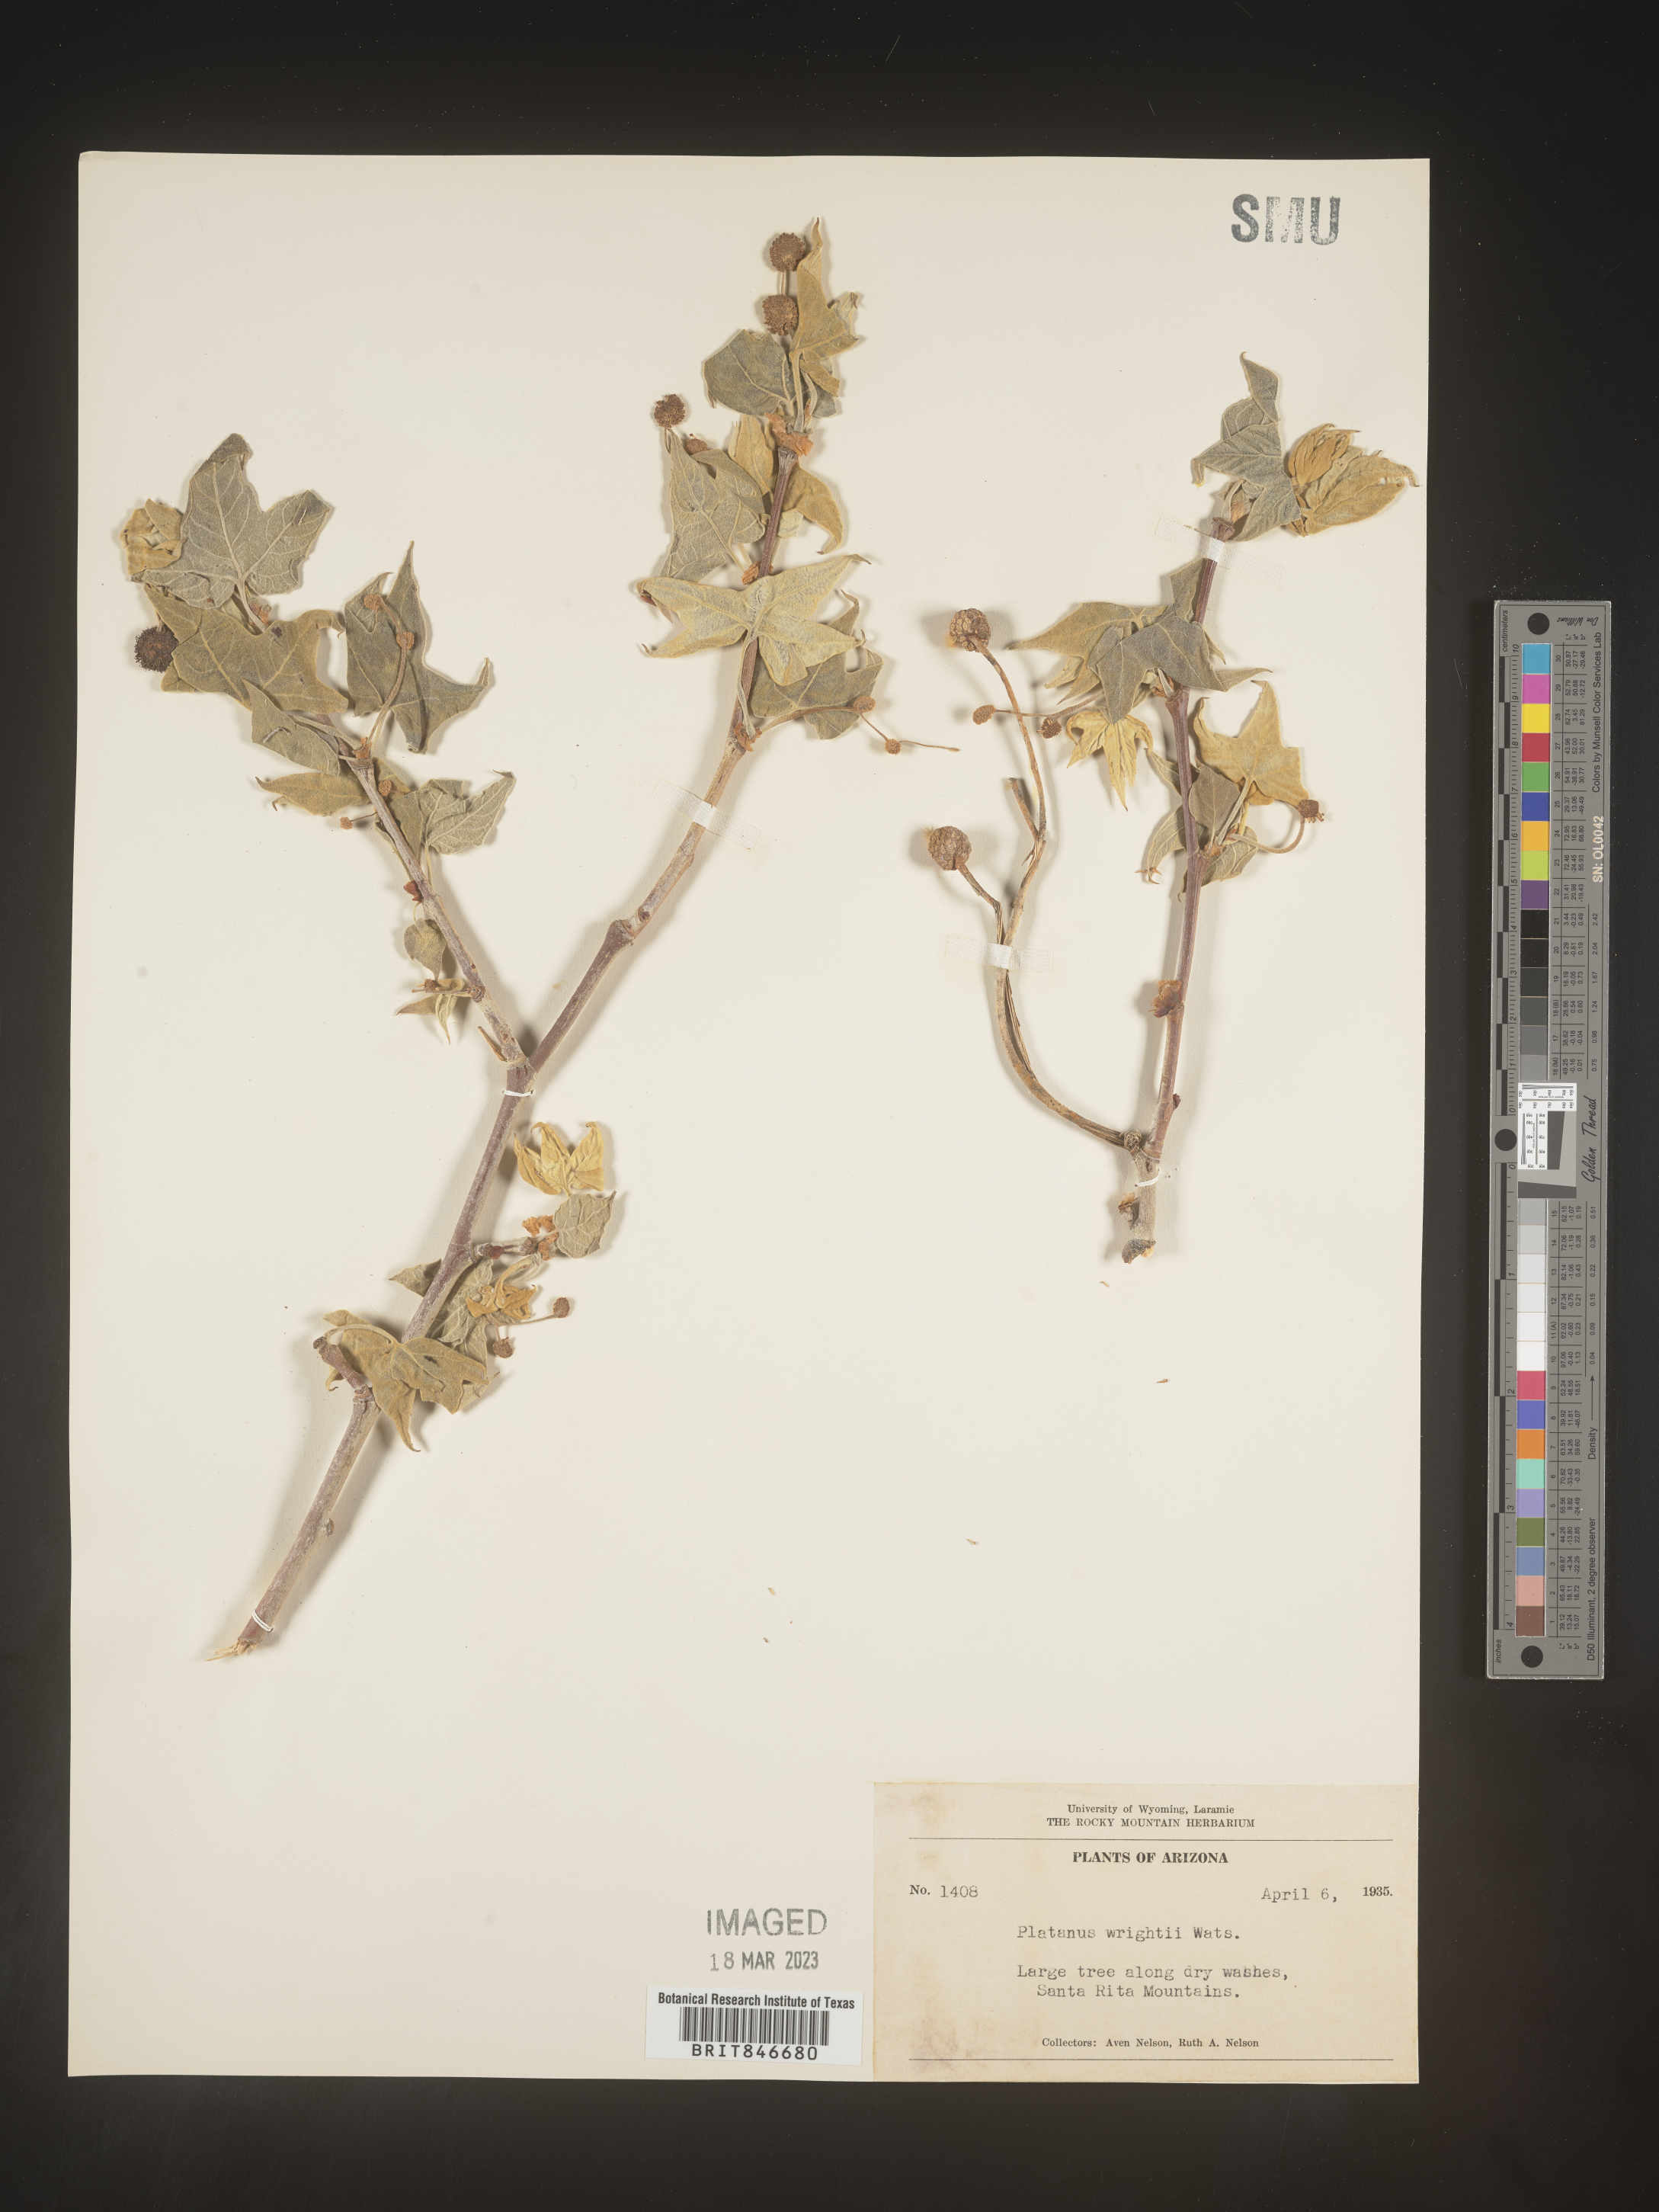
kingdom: Plantae
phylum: Tracheophyta
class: Magnoliopsida
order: Proteales
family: Platanaceae
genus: Platanus
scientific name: Platanus
